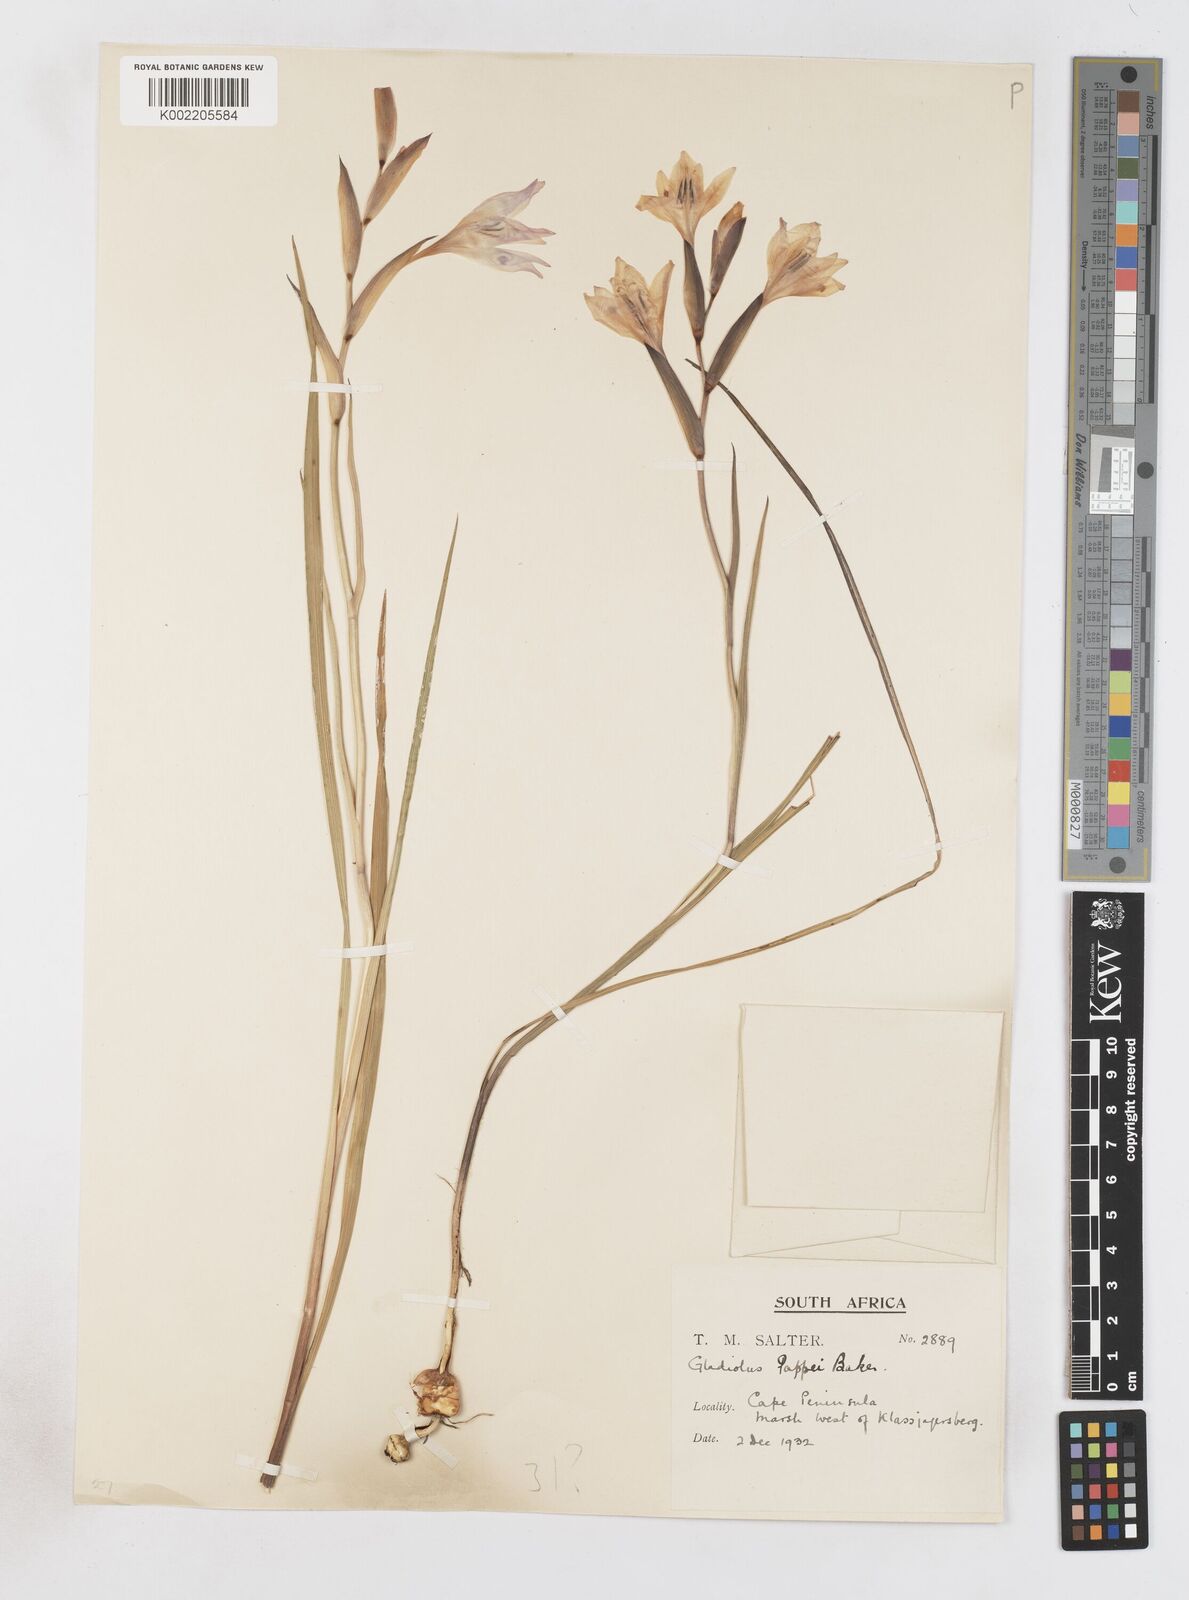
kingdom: Plantae
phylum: Tracheophyta
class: Liliopsida
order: Asparagales
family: Iridaceae
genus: Gladiolus
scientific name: Gladiolus carneus
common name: Painted-lady
